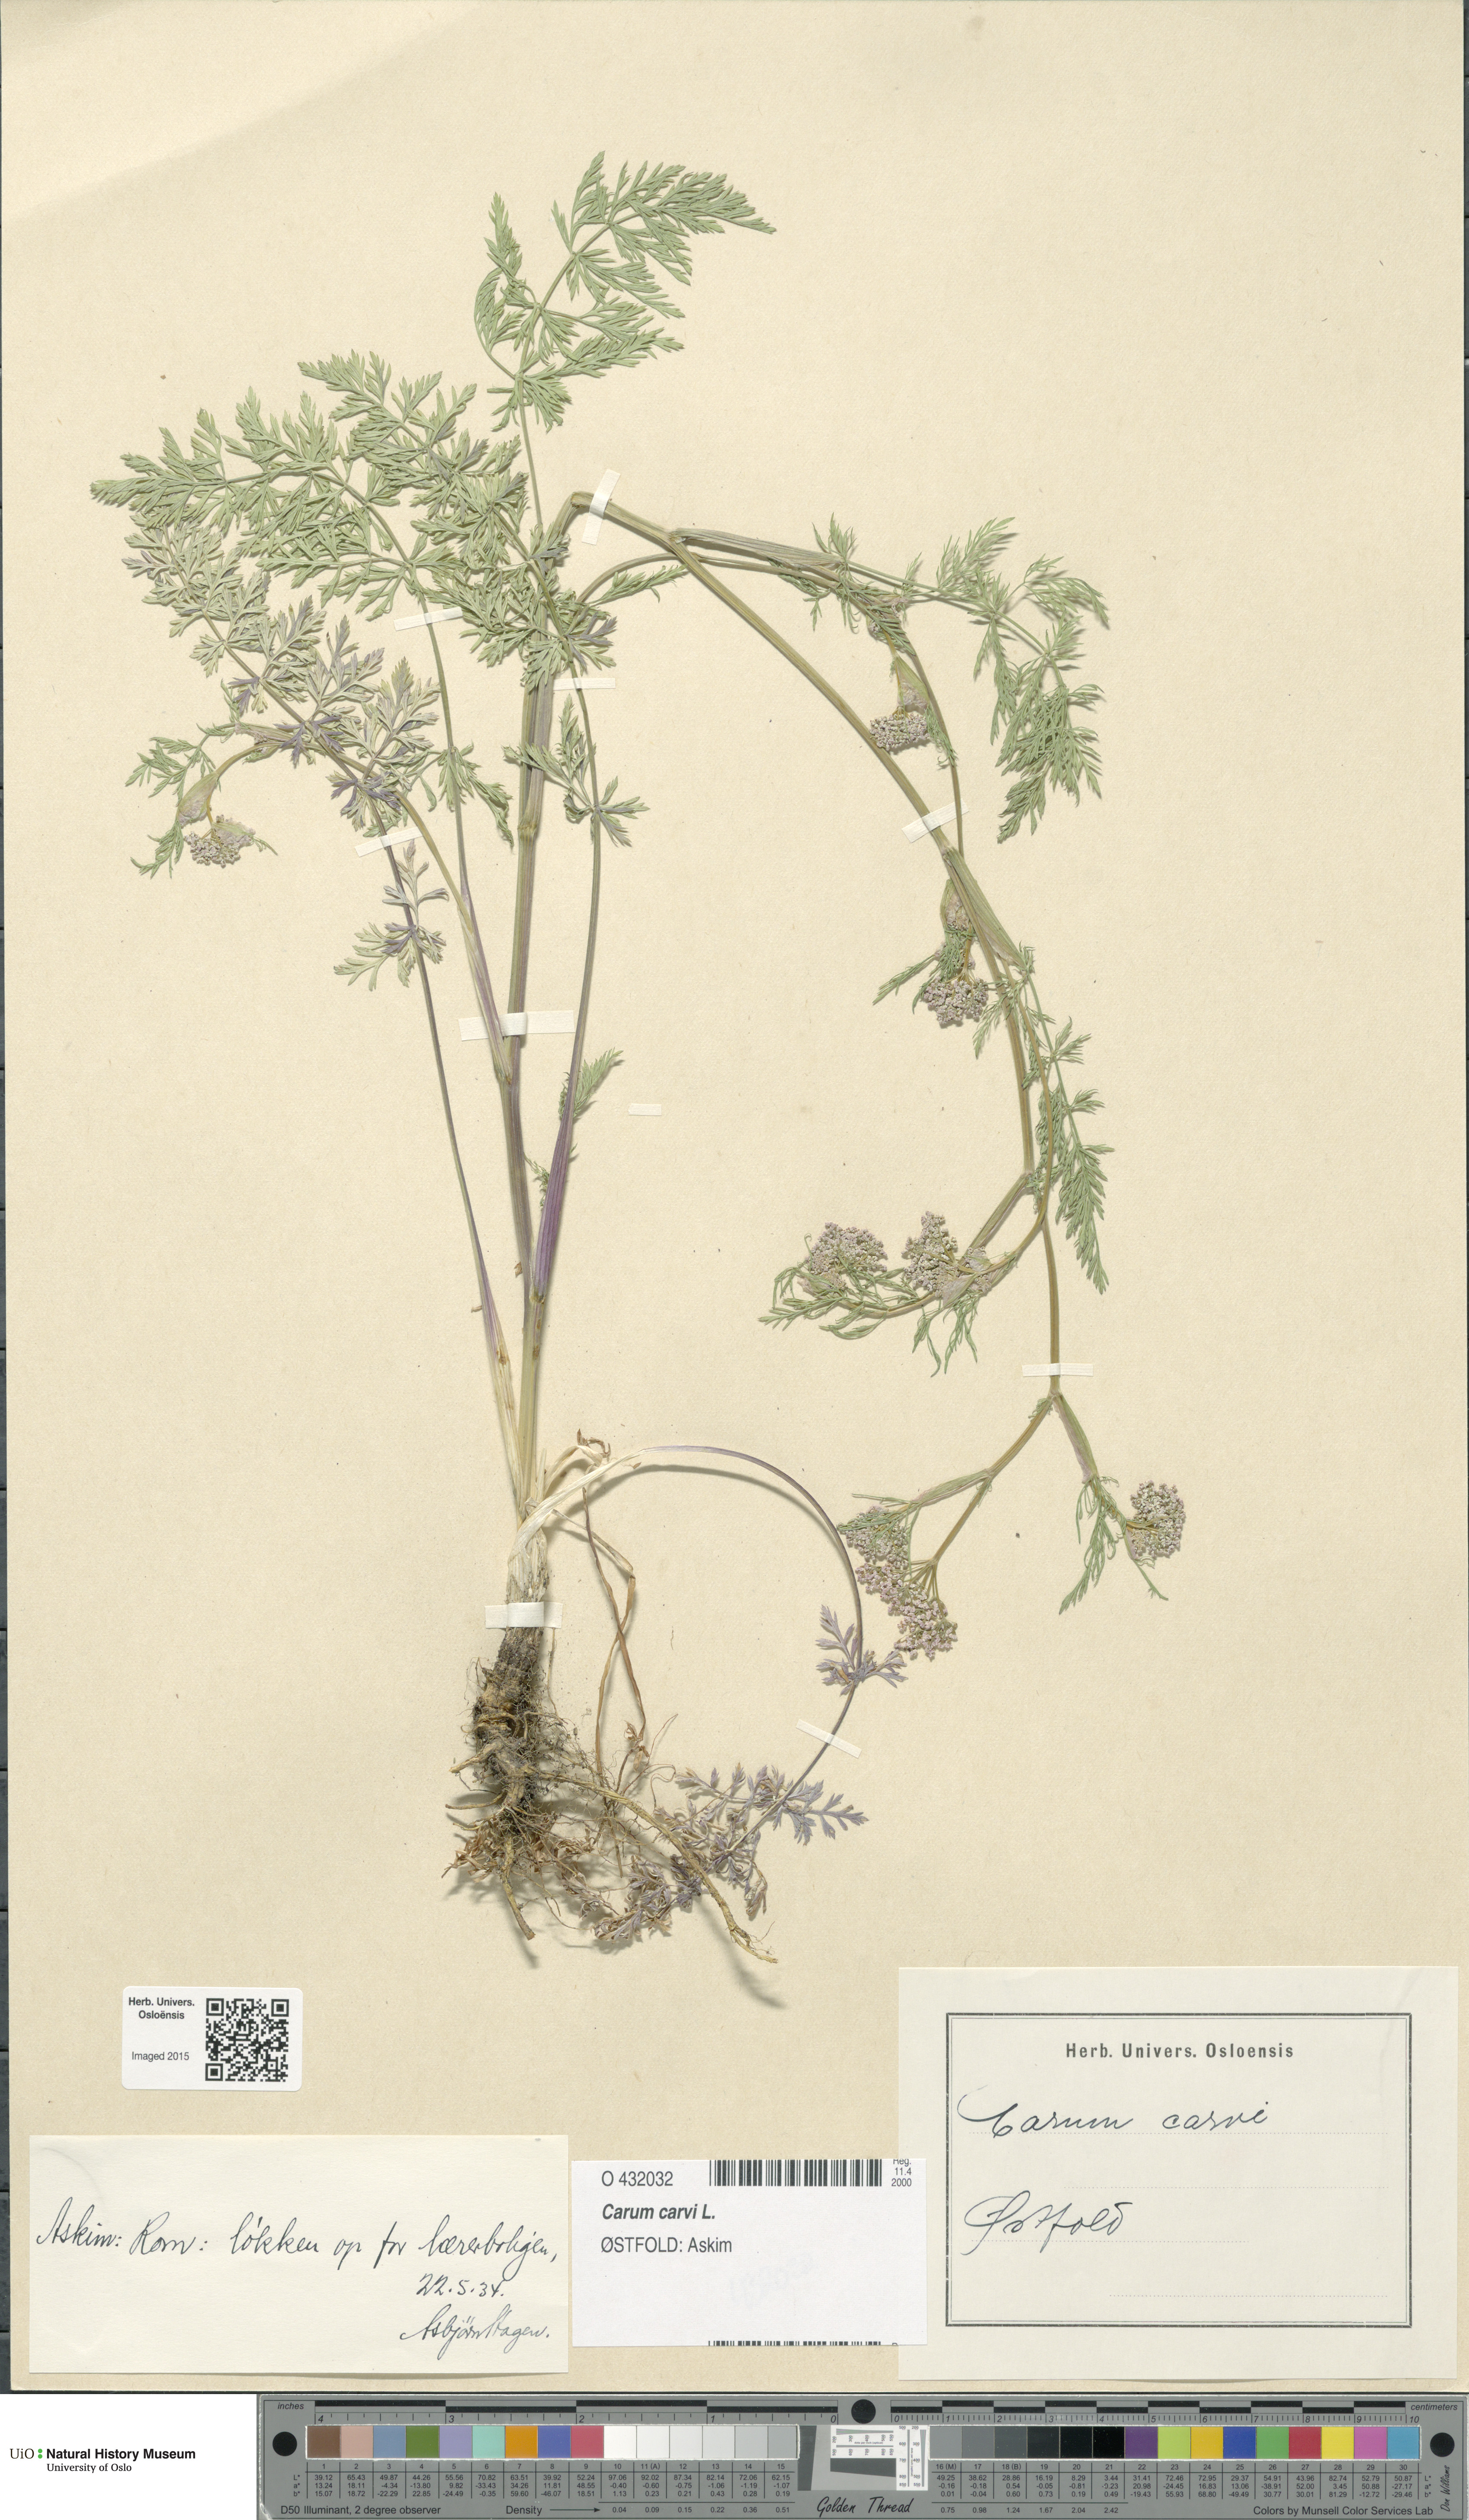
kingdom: Plantae
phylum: Tracheophyta
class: Magnoliopsida
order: Apiales
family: Apiaceae
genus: Carum
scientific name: Carum carvi
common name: Caraway
